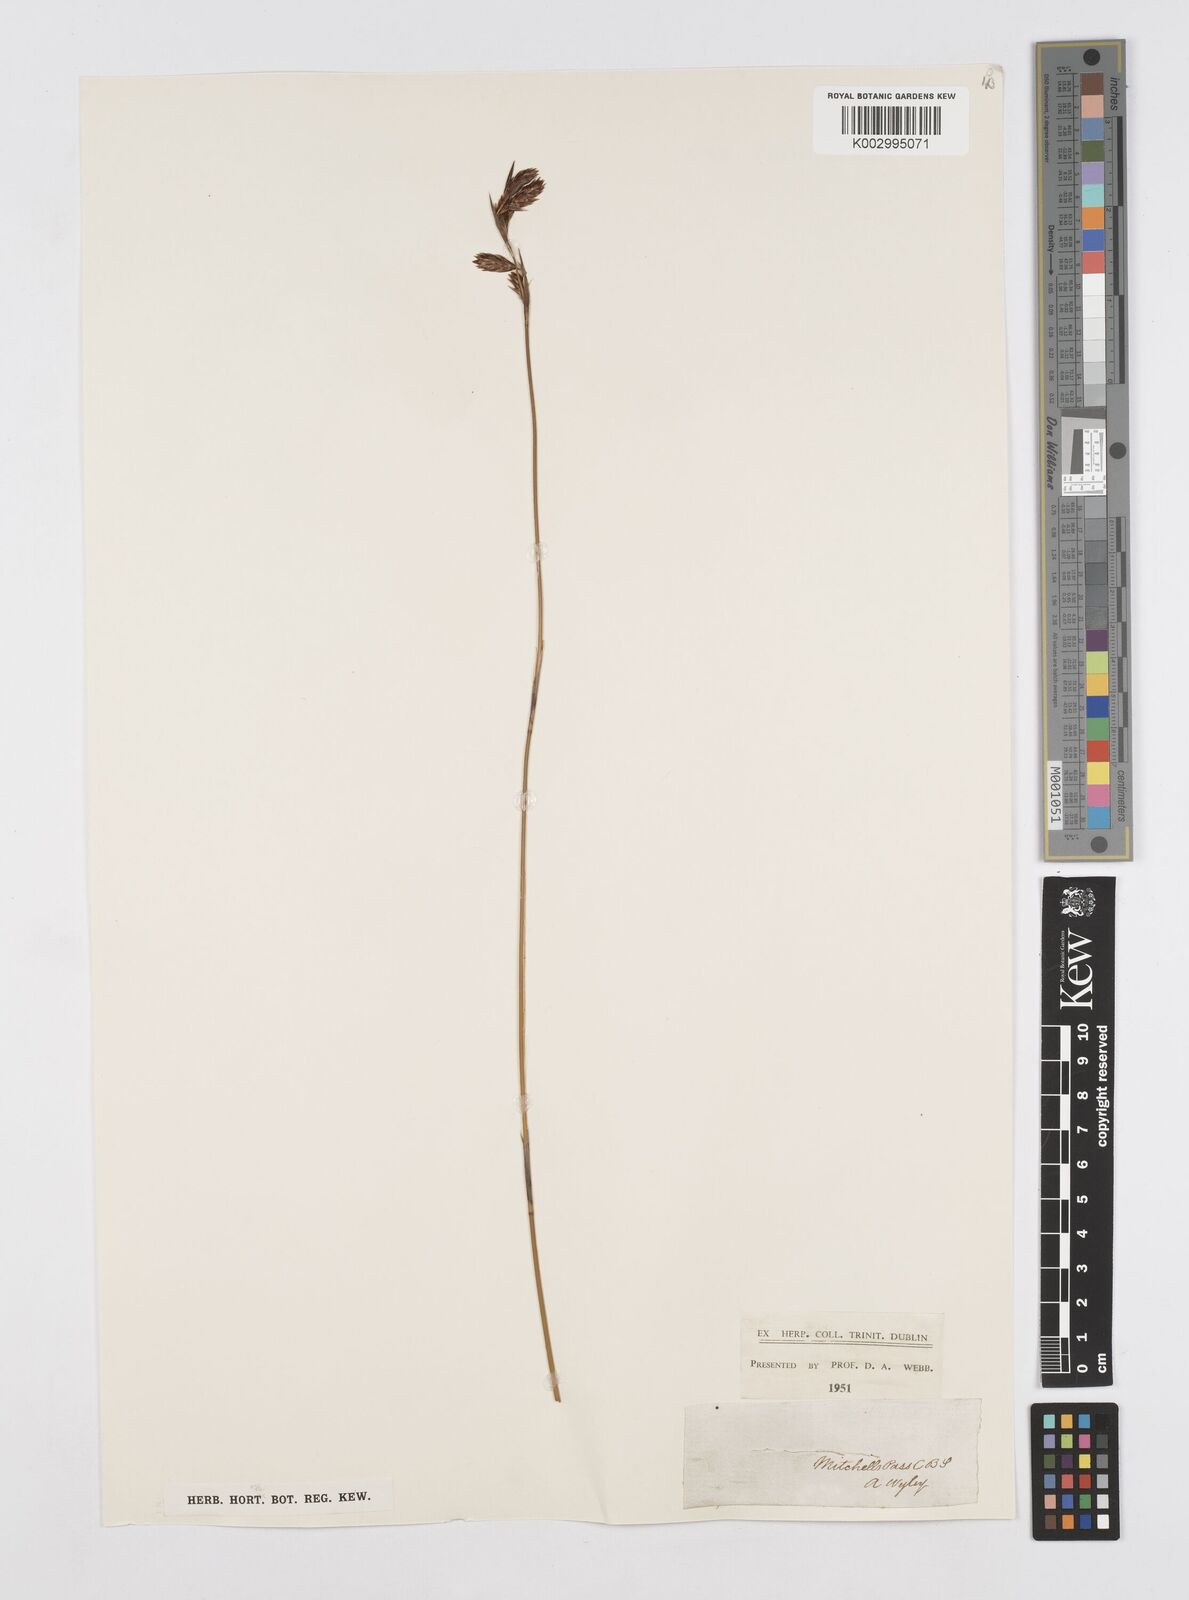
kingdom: Plantae
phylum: Tracheophyta
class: Liliopsida
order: Poales
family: Restionaceae
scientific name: Restionaceae
